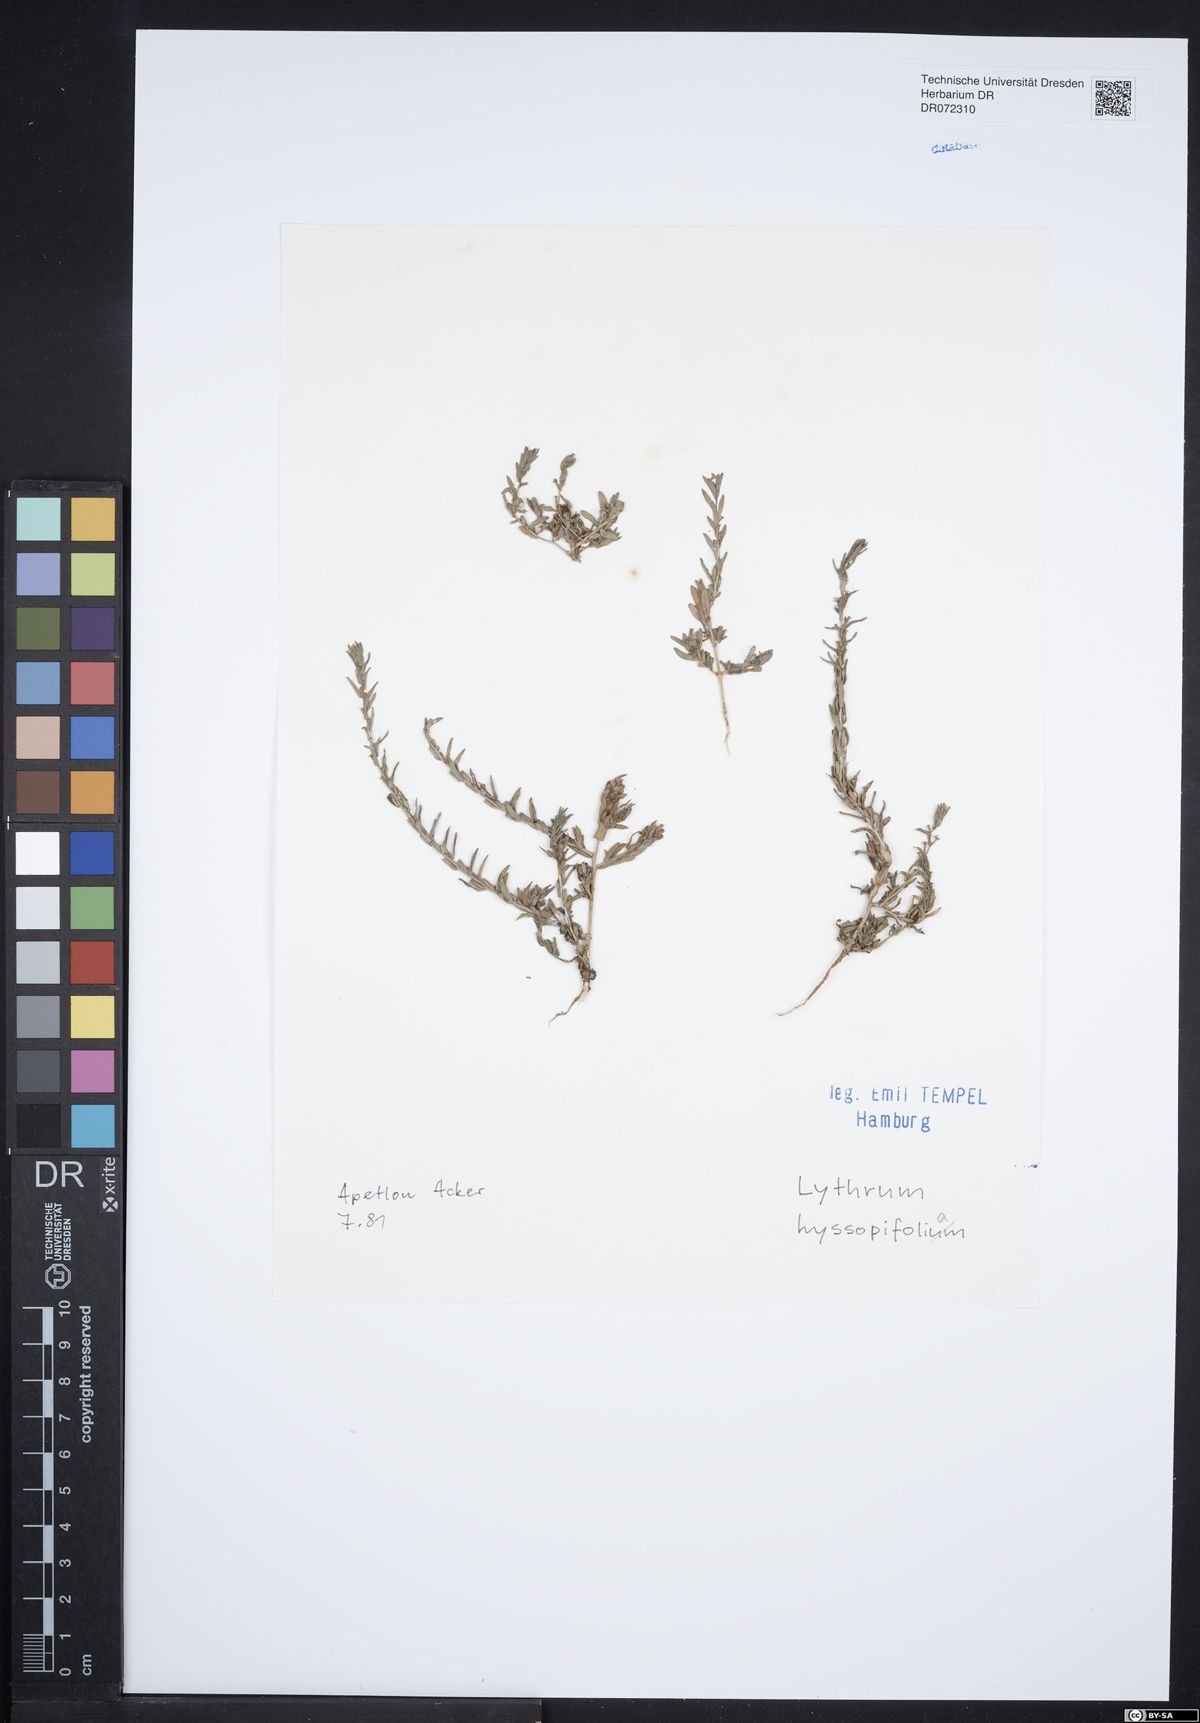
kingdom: Plantae
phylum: Tracheophyta
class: Magnoliopsida
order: Myrtales
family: Lythraceae
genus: Lythrum
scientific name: Lythrum hyssopifolia
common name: Grass-poly
